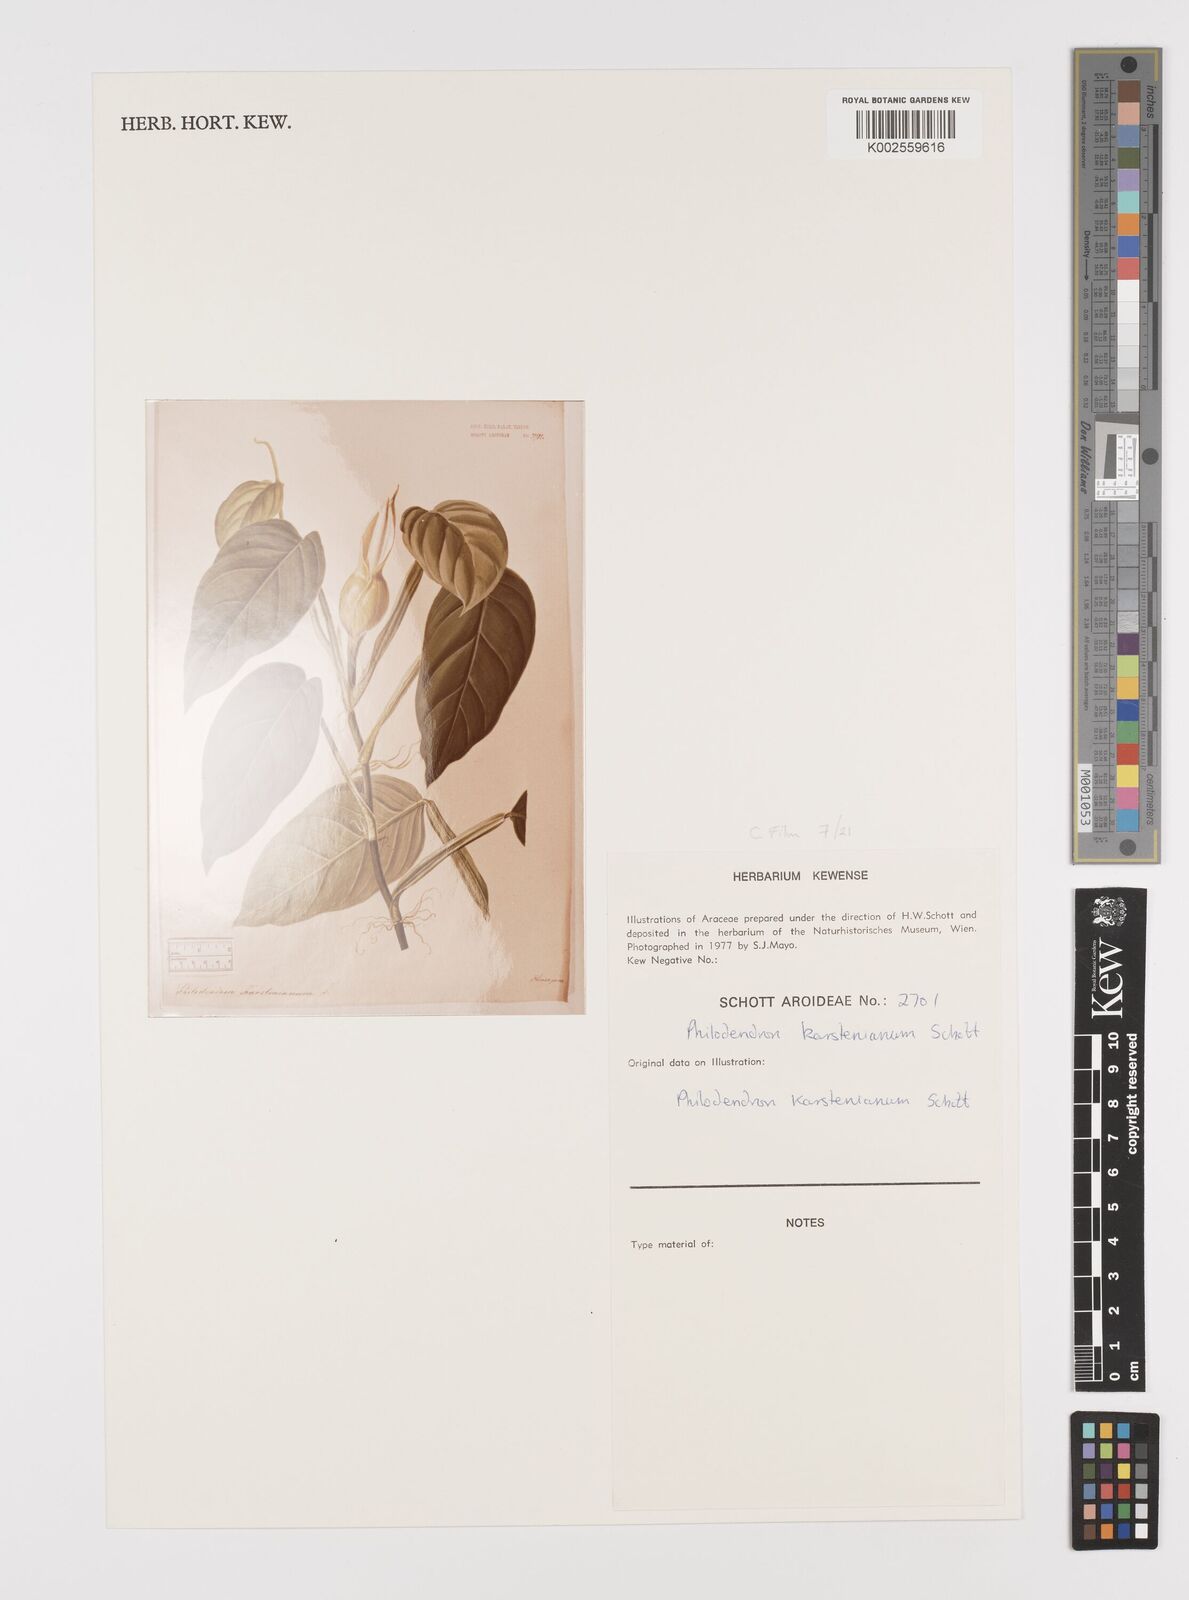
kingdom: Plantae
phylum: Tracheophyta
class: Liliopsida
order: Alismatales
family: Araceae
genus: Philodendron
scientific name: Philodendron venosum
